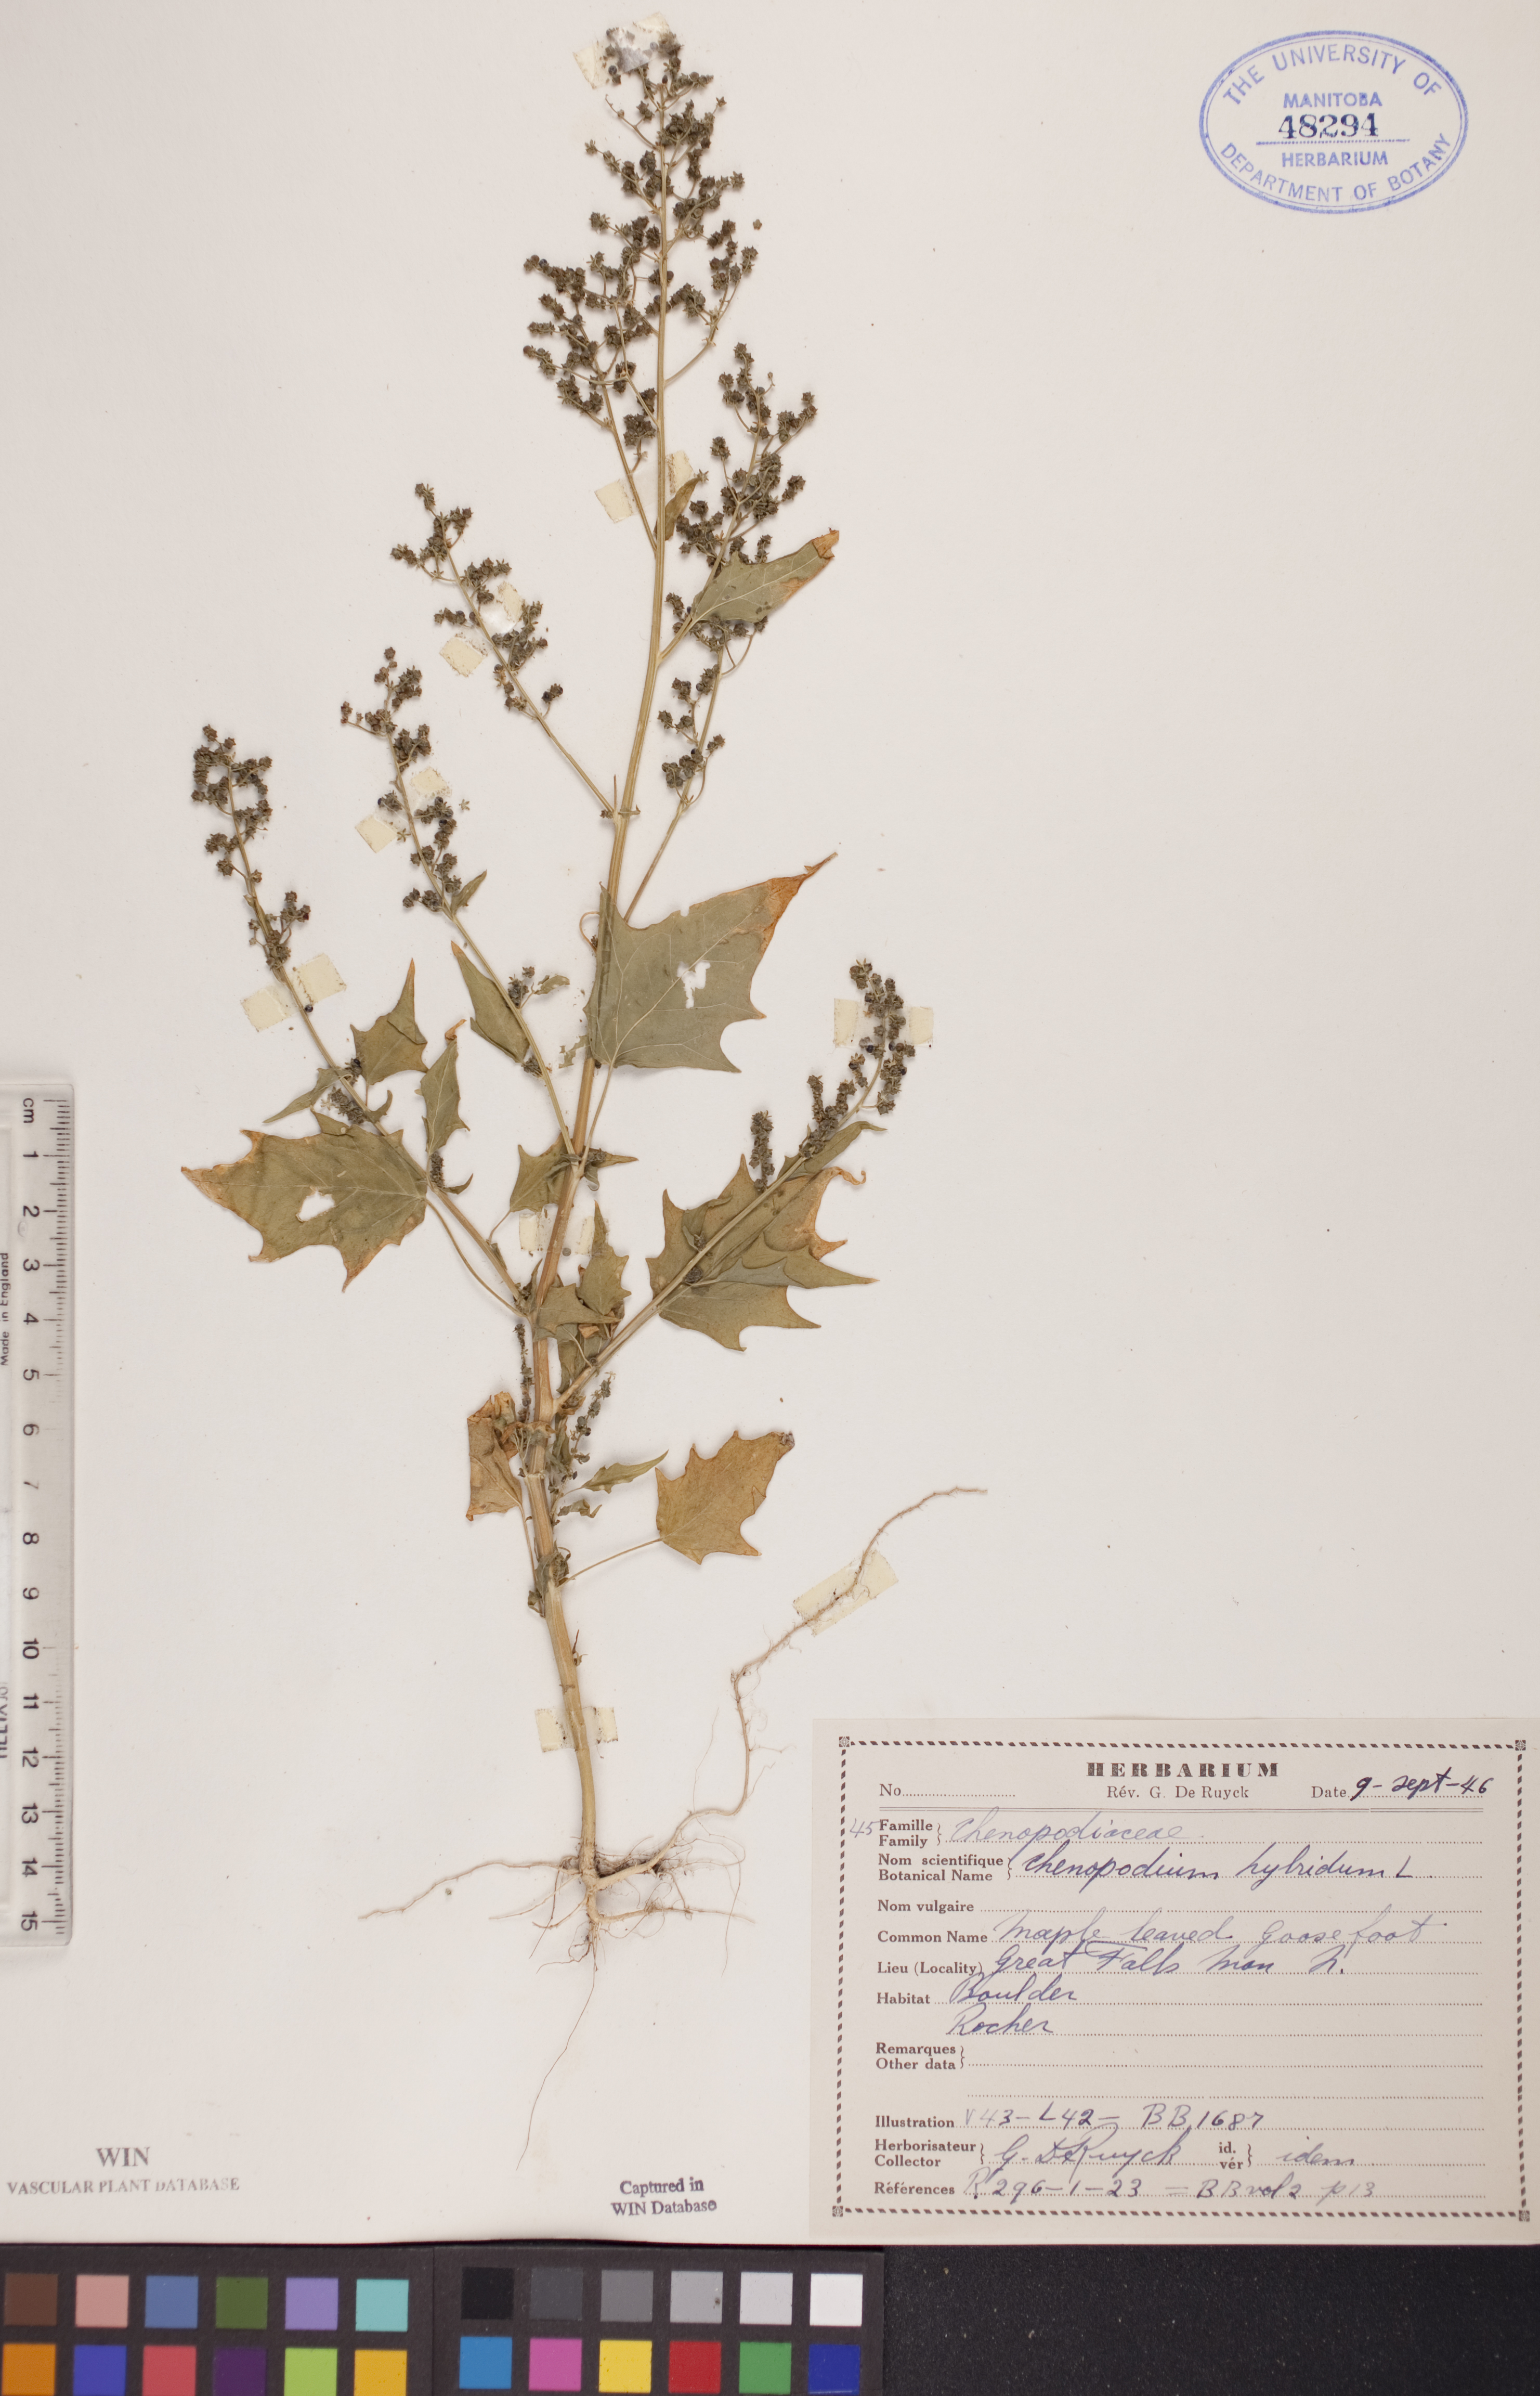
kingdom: Plantae
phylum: Tracheophyta
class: Magnoliopsida
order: Caryophyllales
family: Amaranthaceae
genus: Chenopodiastrum
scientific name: Chenopodiastrum hybridum
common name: Mapleleaf goosefoot
